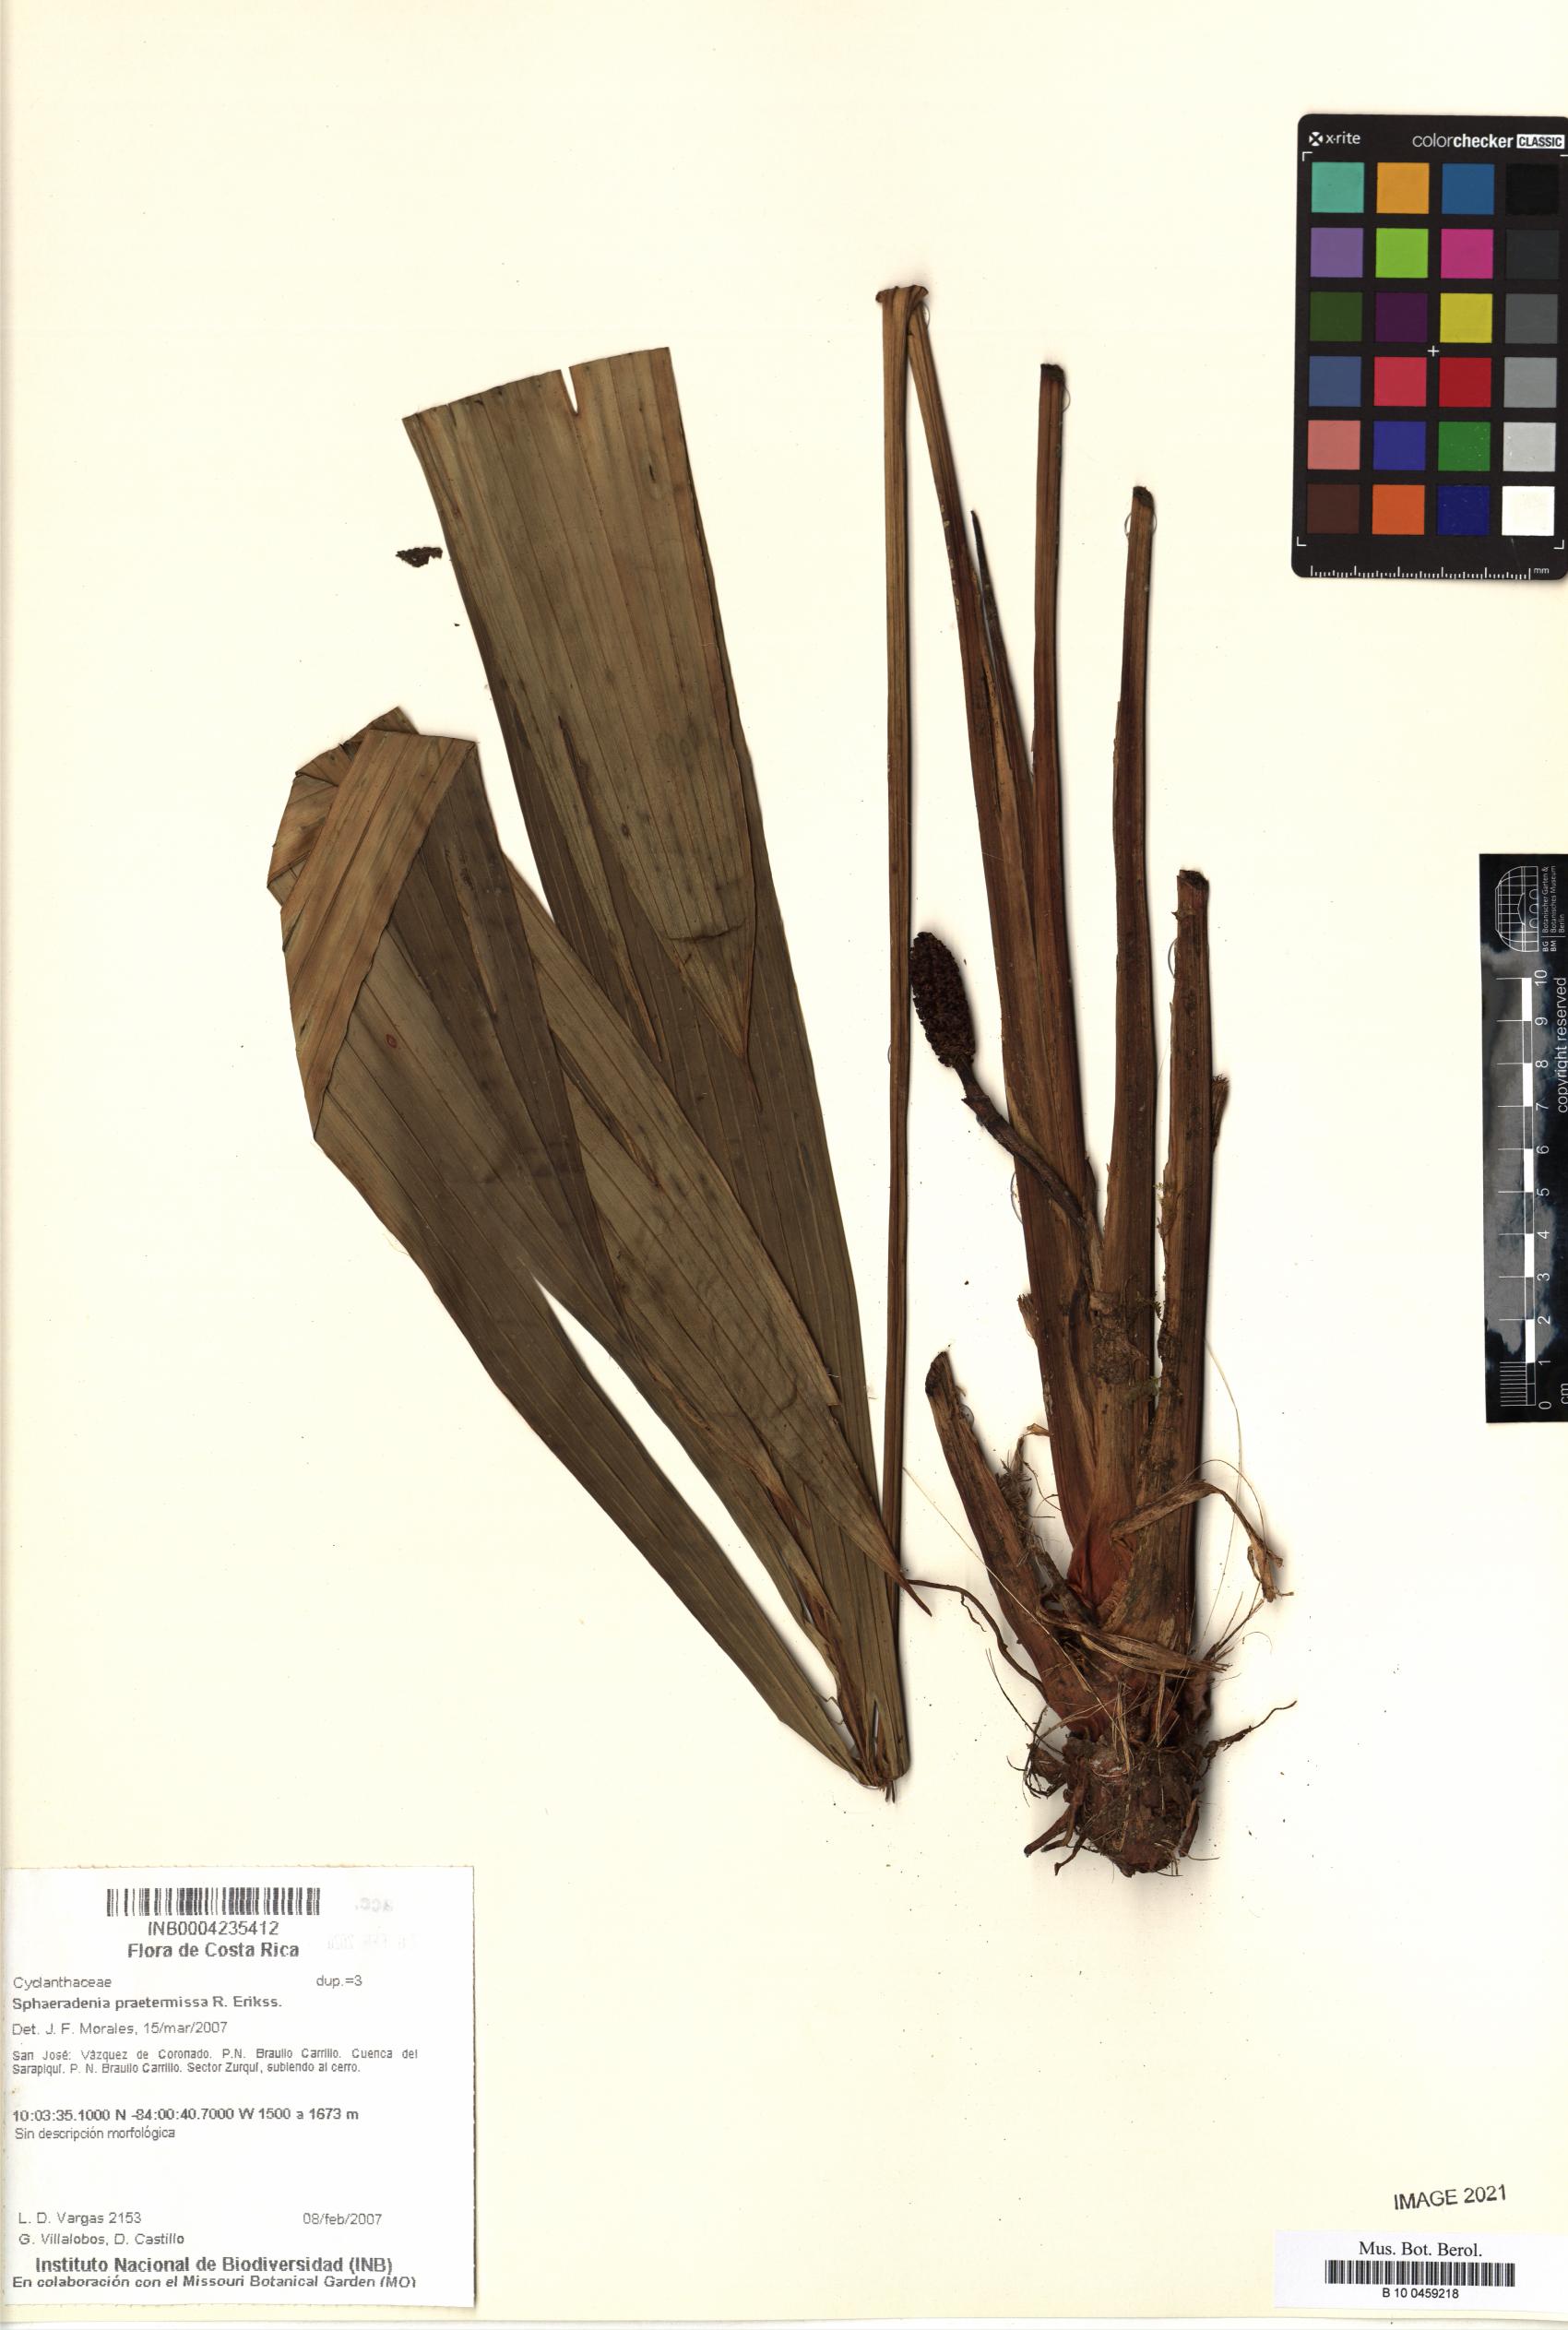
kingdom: Plantae
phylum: Tracheophyta
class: Liliopsida
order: Pandanales
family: Cyclanthaceae
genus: Sphaeradenia
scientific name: Sphaeradenia praetermissa
